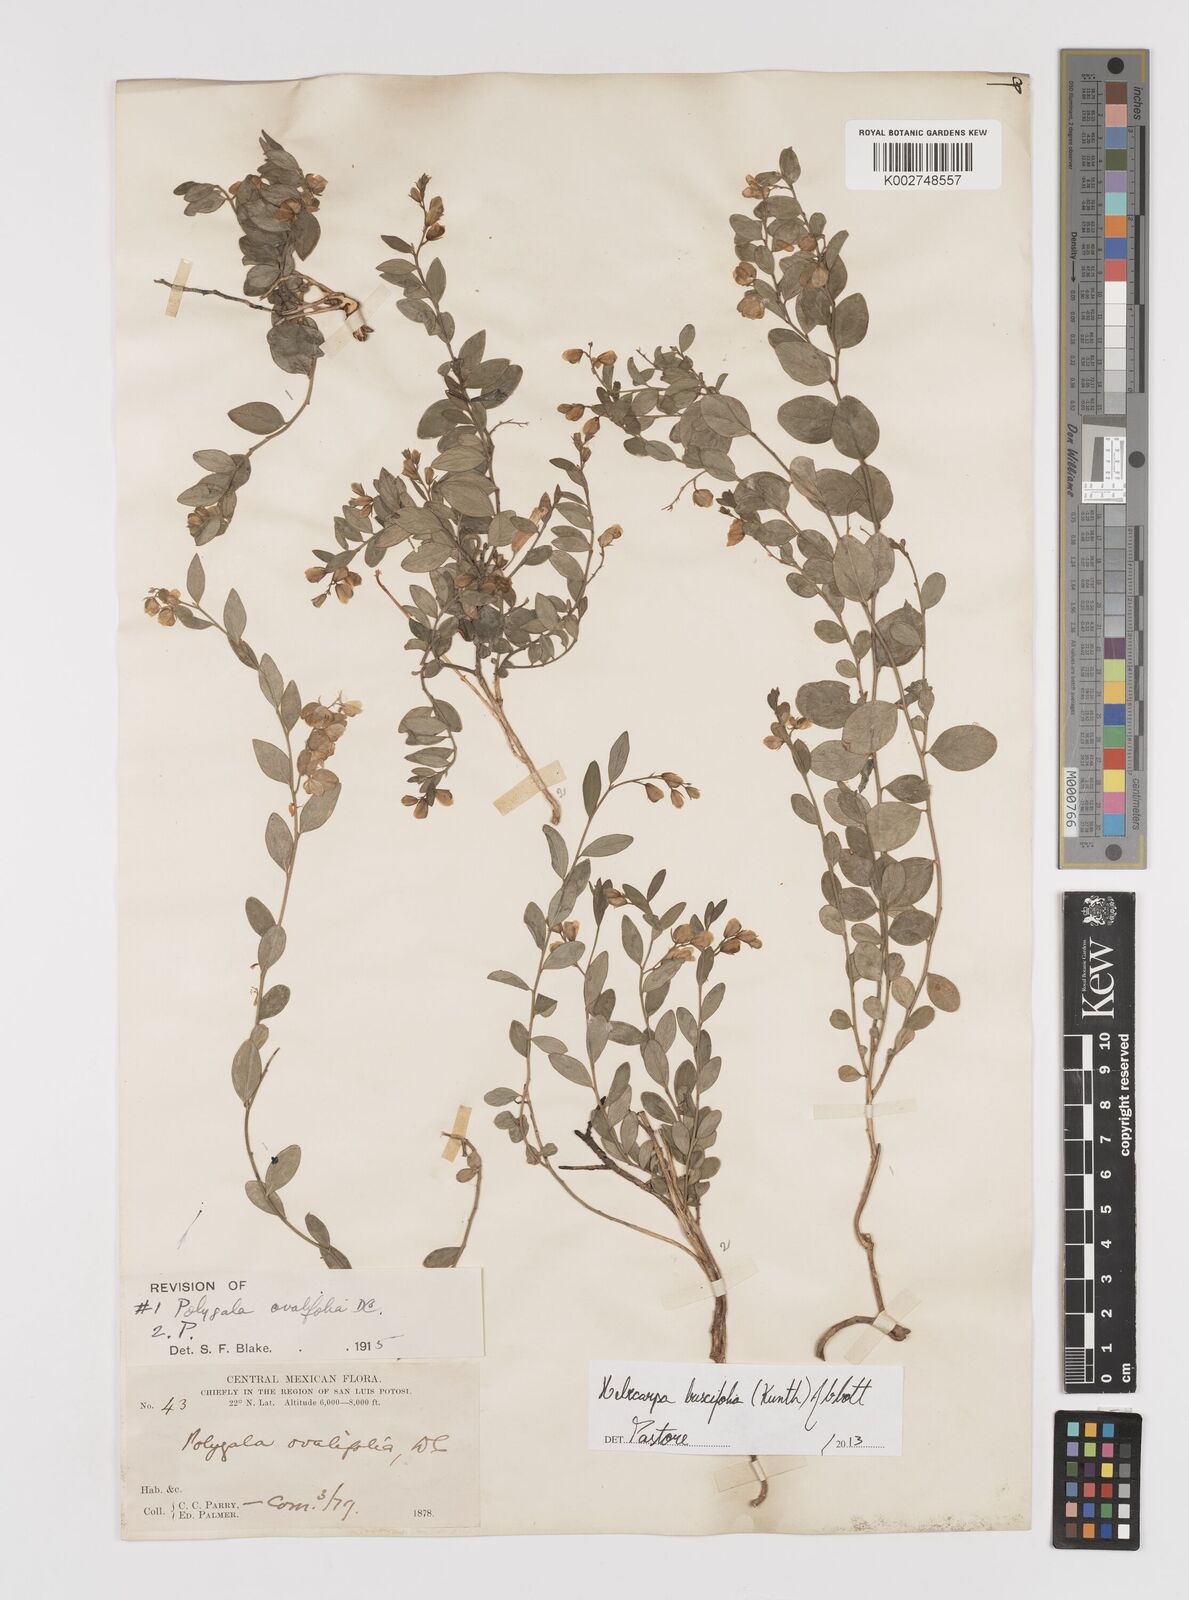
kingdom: Plantae
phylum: Tracheophyta
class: Magnoliopsida
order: Fabales
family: Polygalaceae
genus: Hebecarpa
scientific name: Hebecarpa buxifolia
